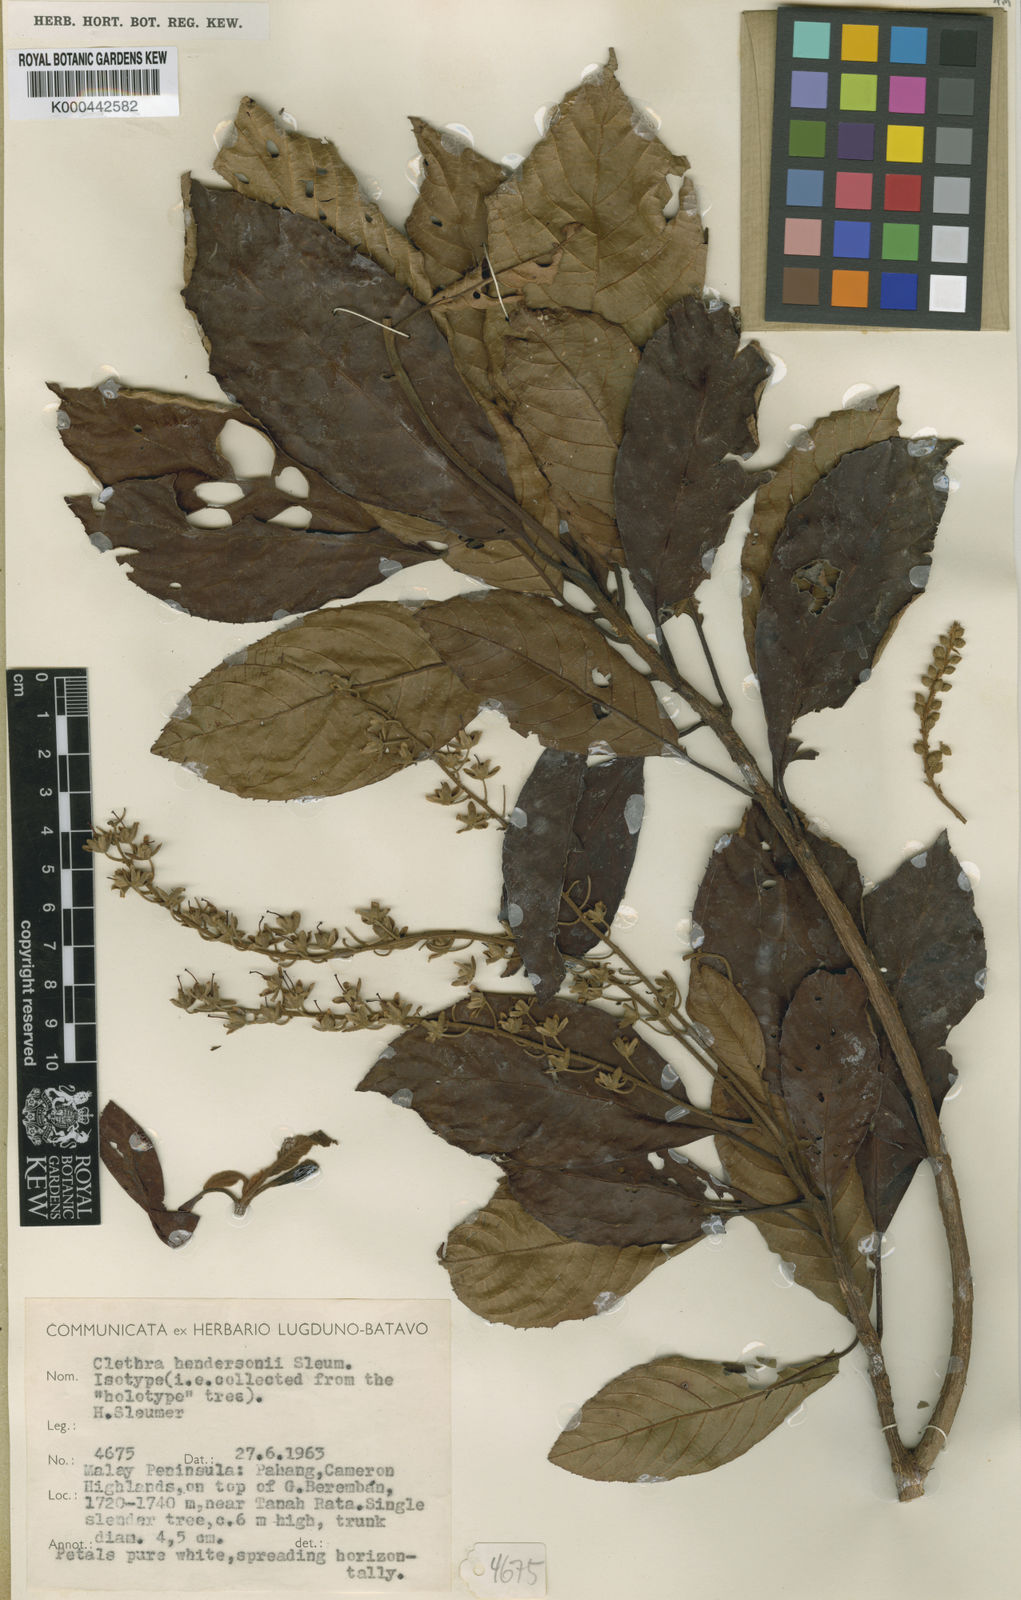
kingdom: Plantae
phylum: Tracheophyta
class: Magnoliopsida
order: Ericales
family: Clethraceae
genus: Clethra
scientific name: Clethra hendersonii
